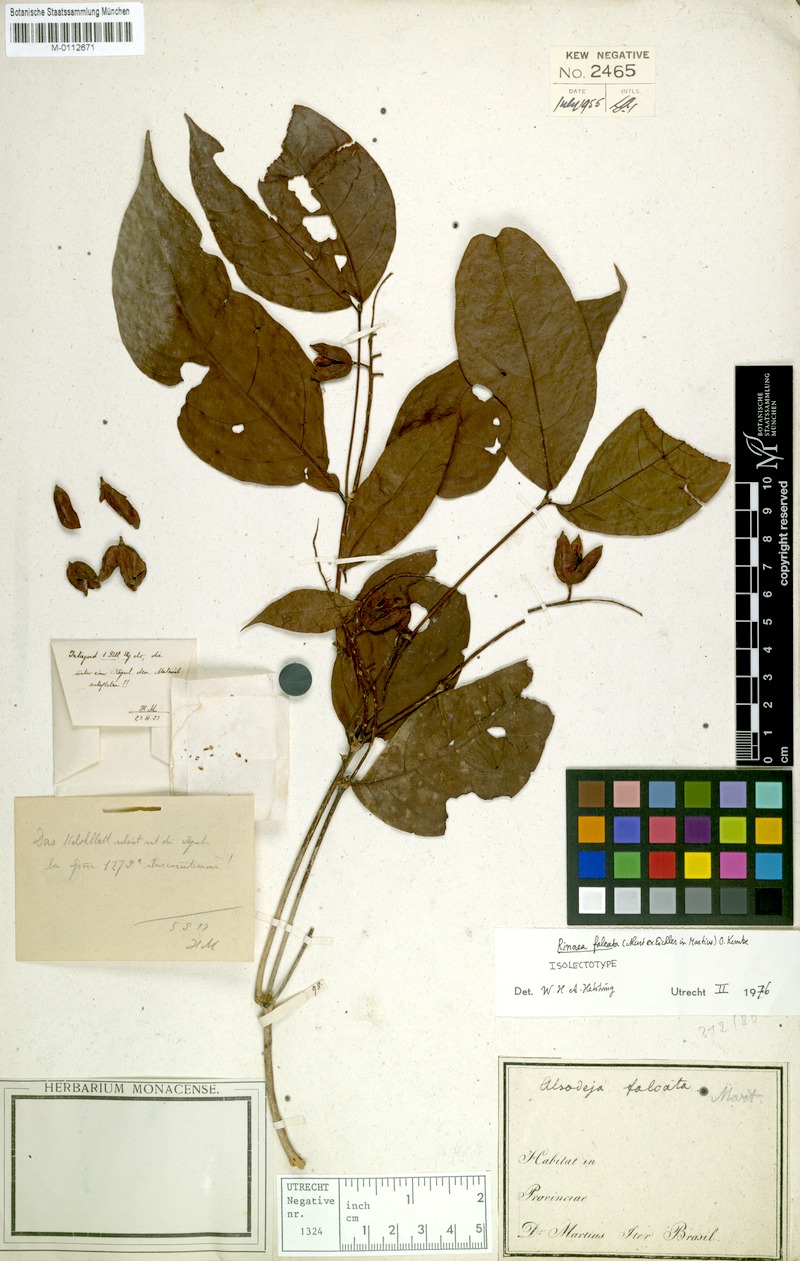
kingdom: Plantae
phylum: Tracheophyta
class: Magnoliopsida
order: Malpighiales
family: Violaceae
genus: Rinorea
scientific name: Rinorea falcata
